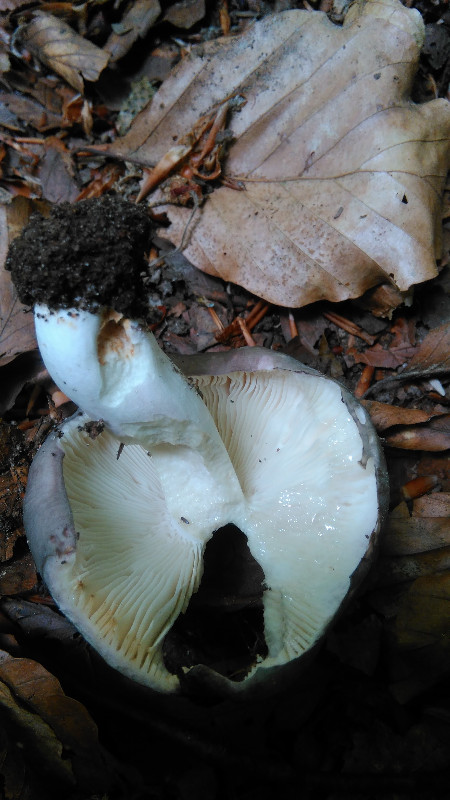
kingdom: Fungi
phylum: Basidiomycota
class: Agaricomycetes
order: Russulales
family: Russulaceae
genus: Russula
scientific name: Russula cyanoxantha
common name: broget skørhat
